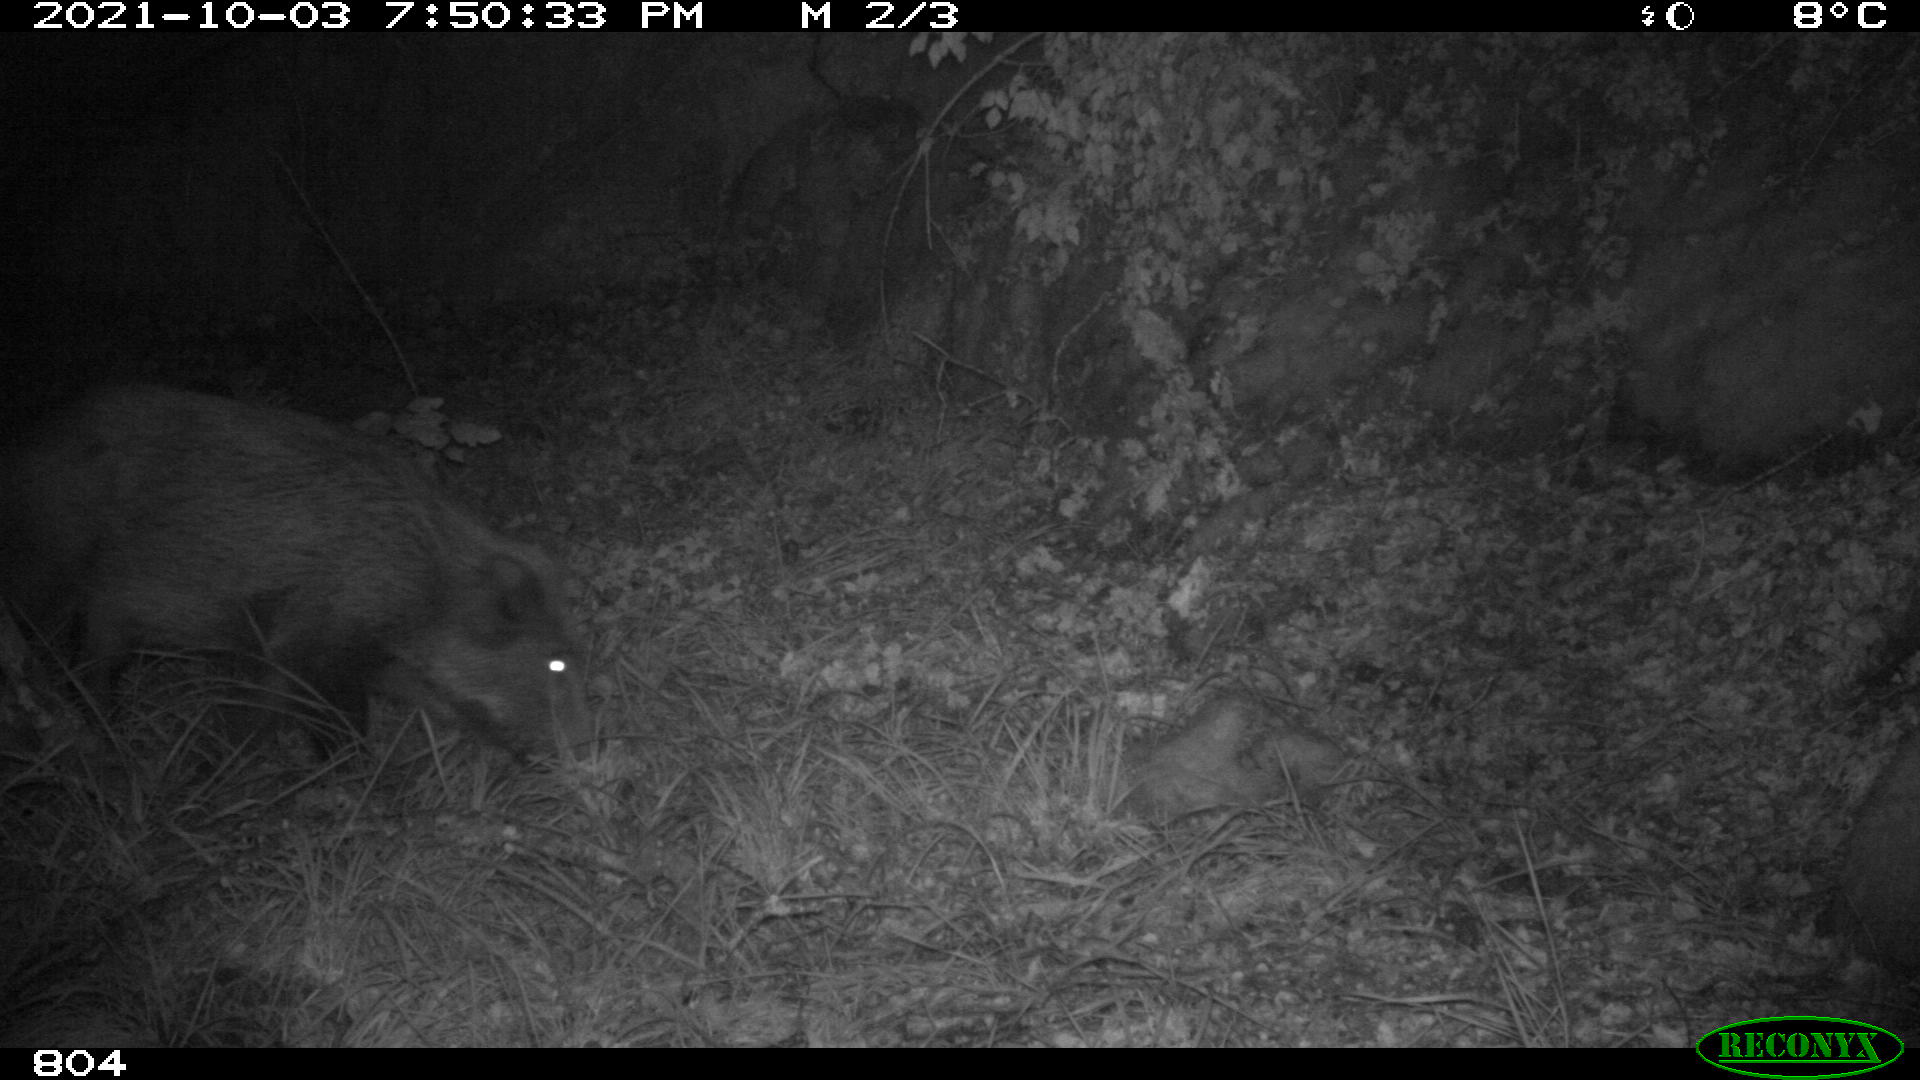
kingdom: Animalia
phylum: Chordata
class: Mammalia
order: Artiodactyla
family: Suidae
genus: Sus
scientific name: Sus scrofa
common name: Wild boar
